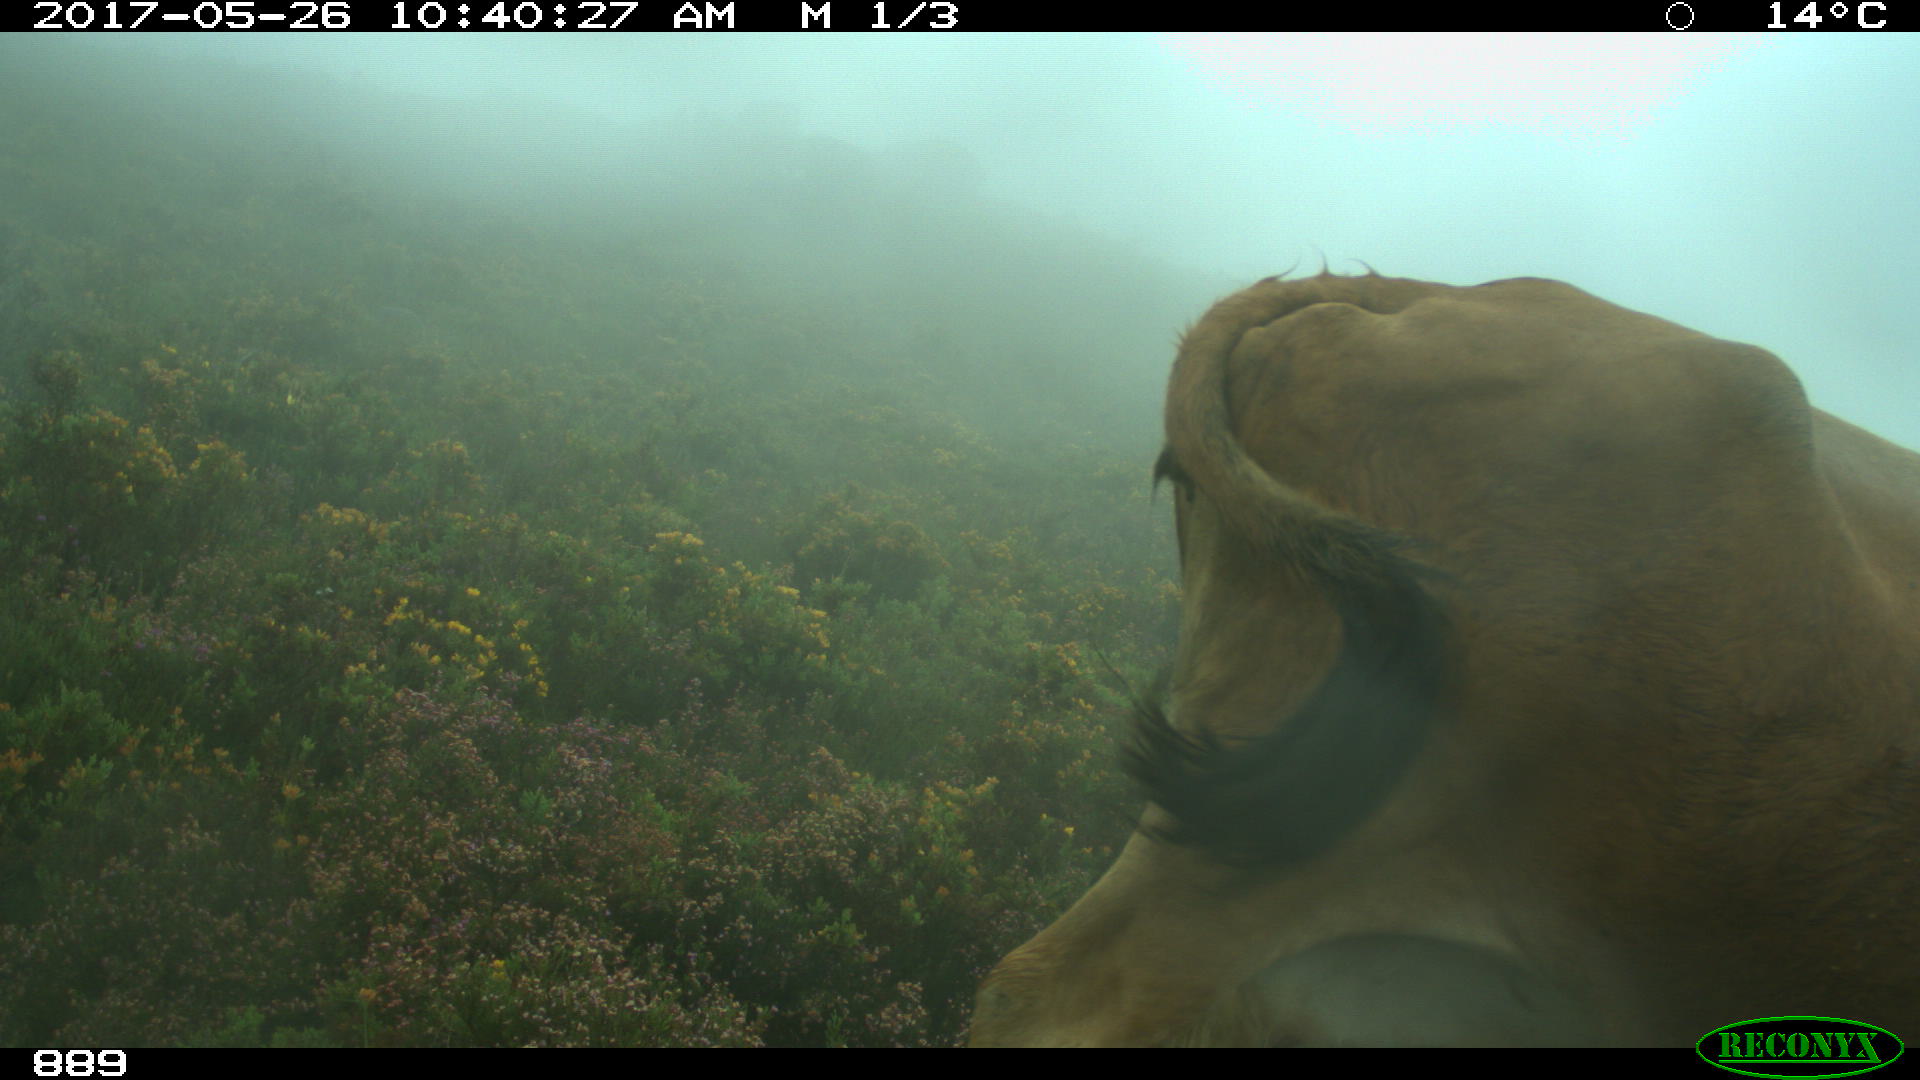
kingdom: Animalia
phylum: Chordata
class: Mammalia
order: Artiodactyla
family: Bovidae
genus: Bos
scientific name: Bos taurus
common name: Domesticated cattle
